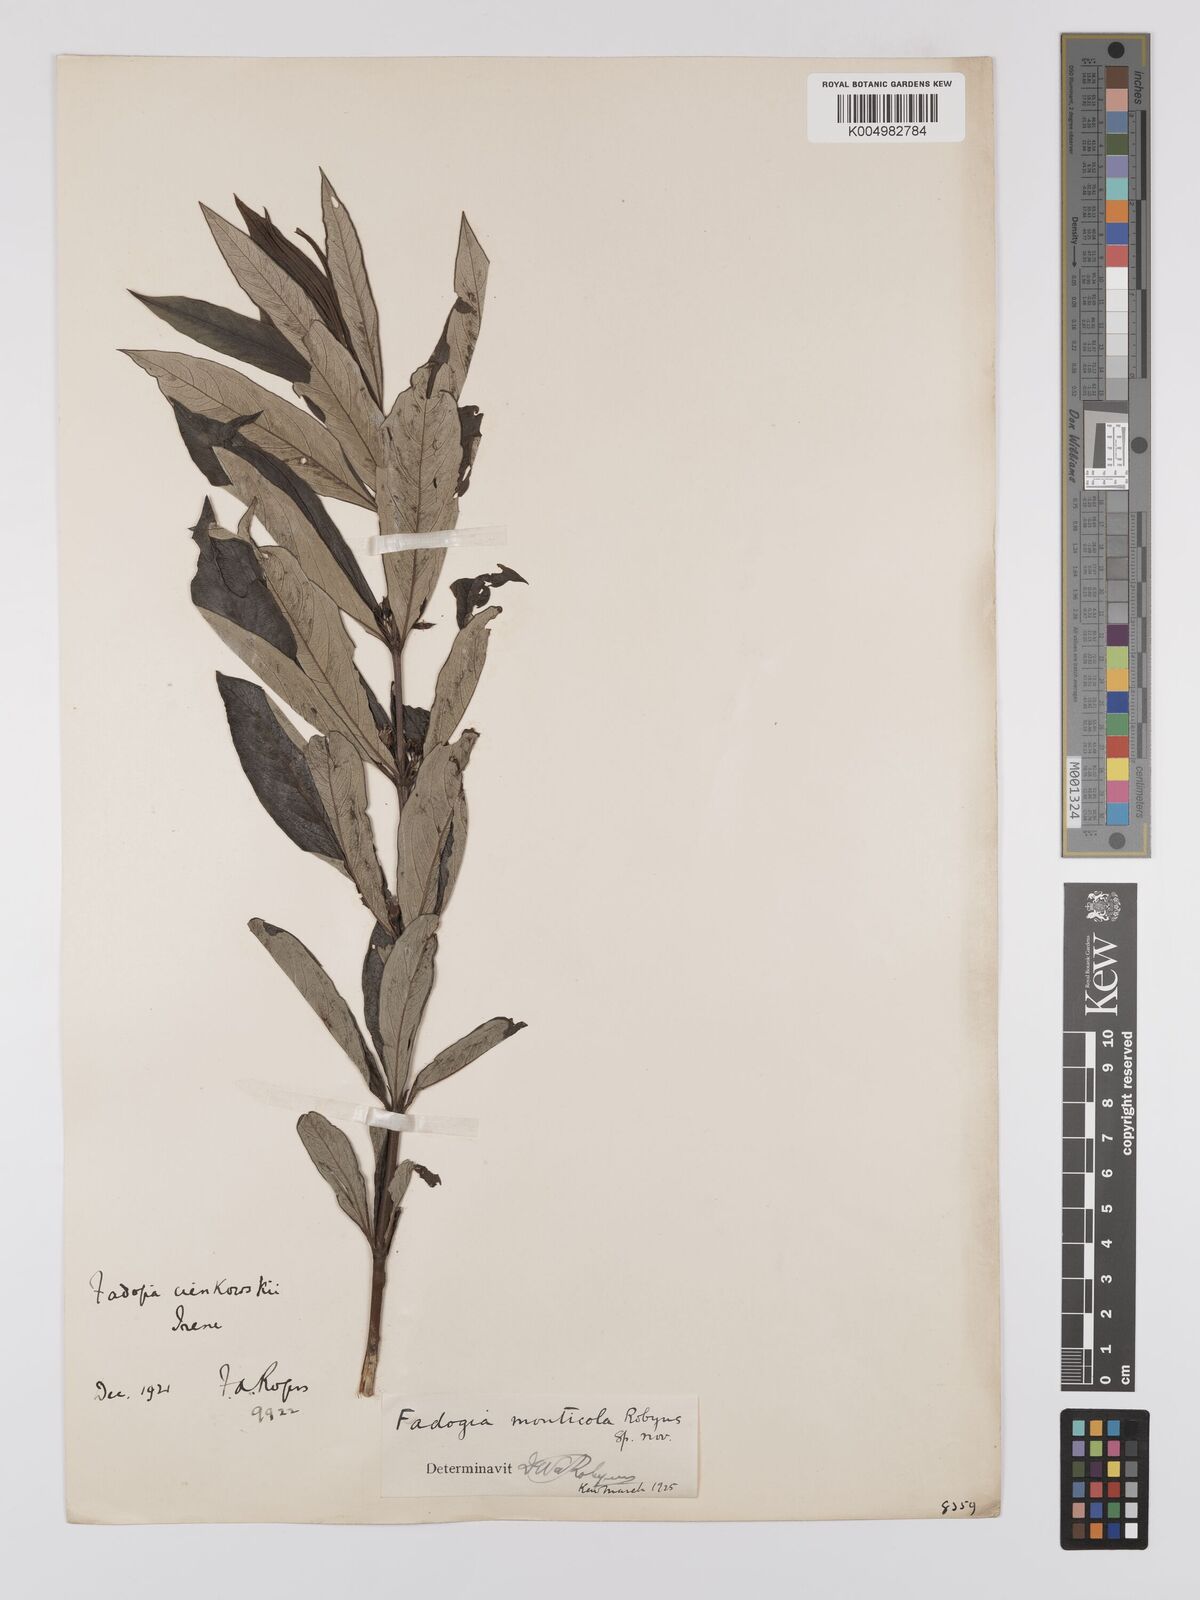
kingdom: Plantae
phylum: Tracheophyta
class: Magnoliopsida
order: Gentianales
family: Rubiaceae
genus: Fadogia
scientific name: Fadogia homblei
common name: Wild date
